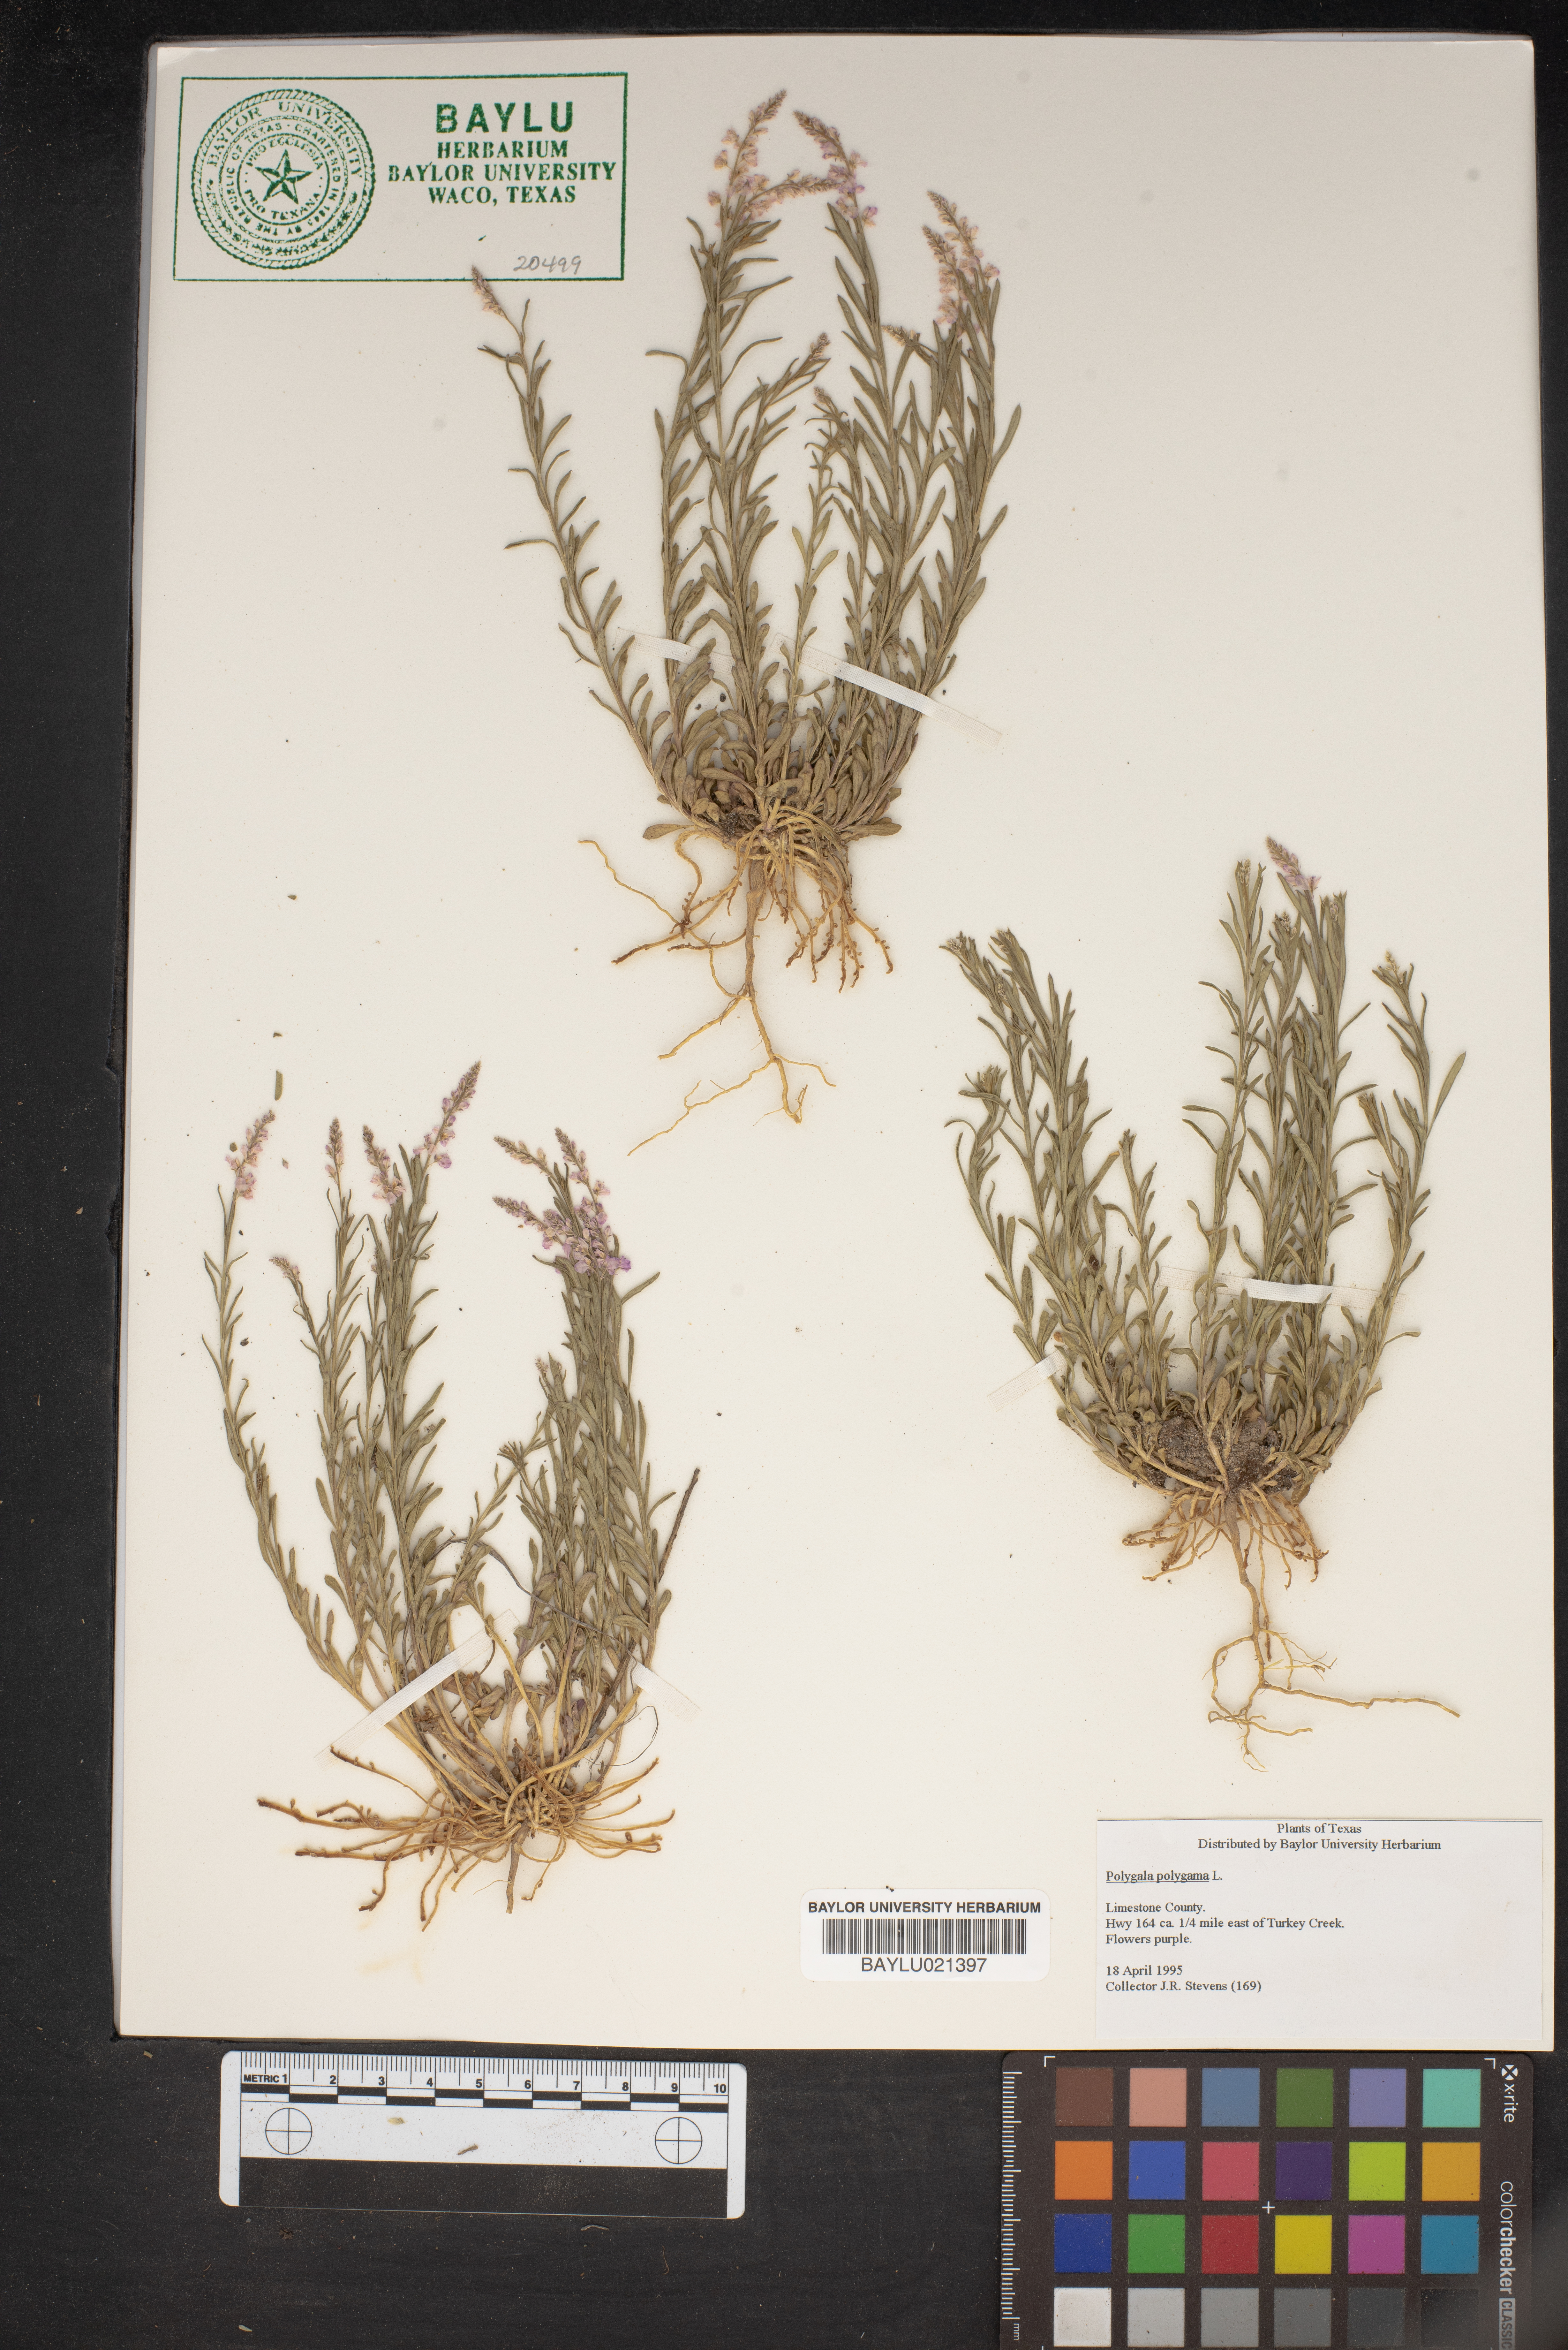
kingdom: Plantae
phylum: Tracheophyta
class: Magnoliopsida
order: Fabales
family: Polygalaceae
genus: Polygala
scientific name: Polygala polygama
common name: Bitter milkwort
